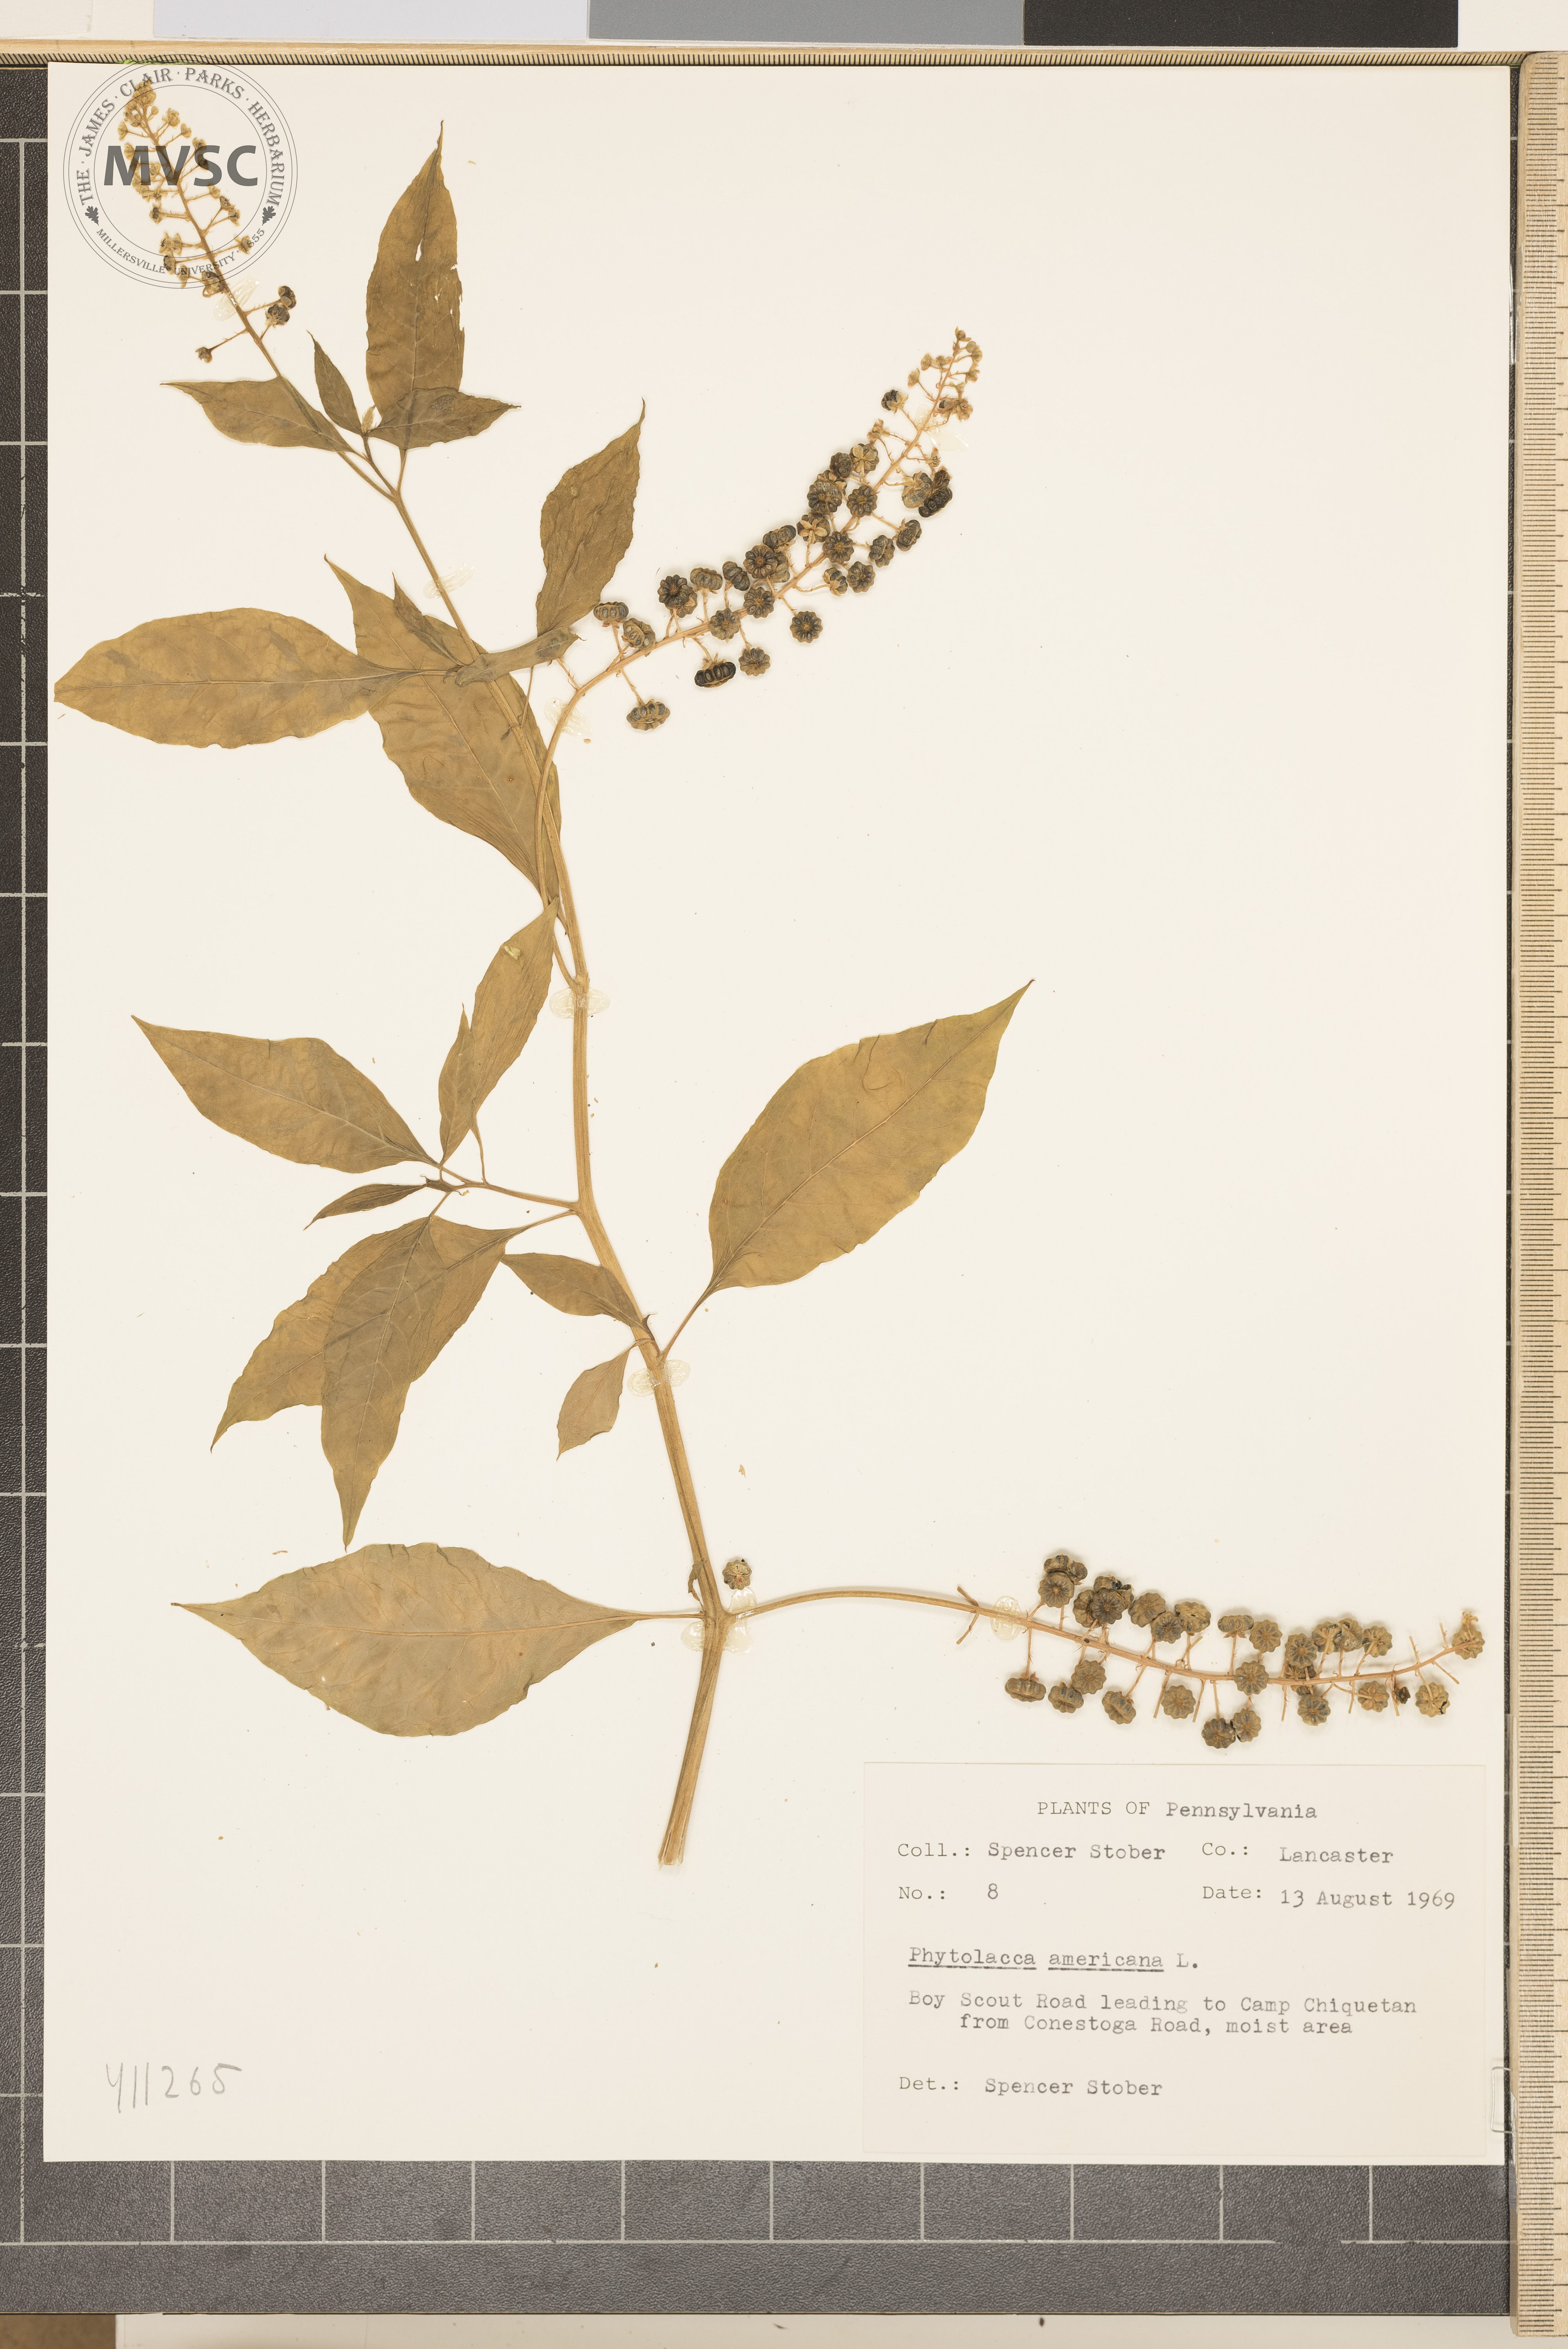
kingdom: Plantae
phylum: Tracheophyta
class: Magnoliopsida
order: Caryophyllales
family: Phytolaccaceae
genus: Phytolacca
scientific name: Phytolacca americana
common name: Pokeweed
